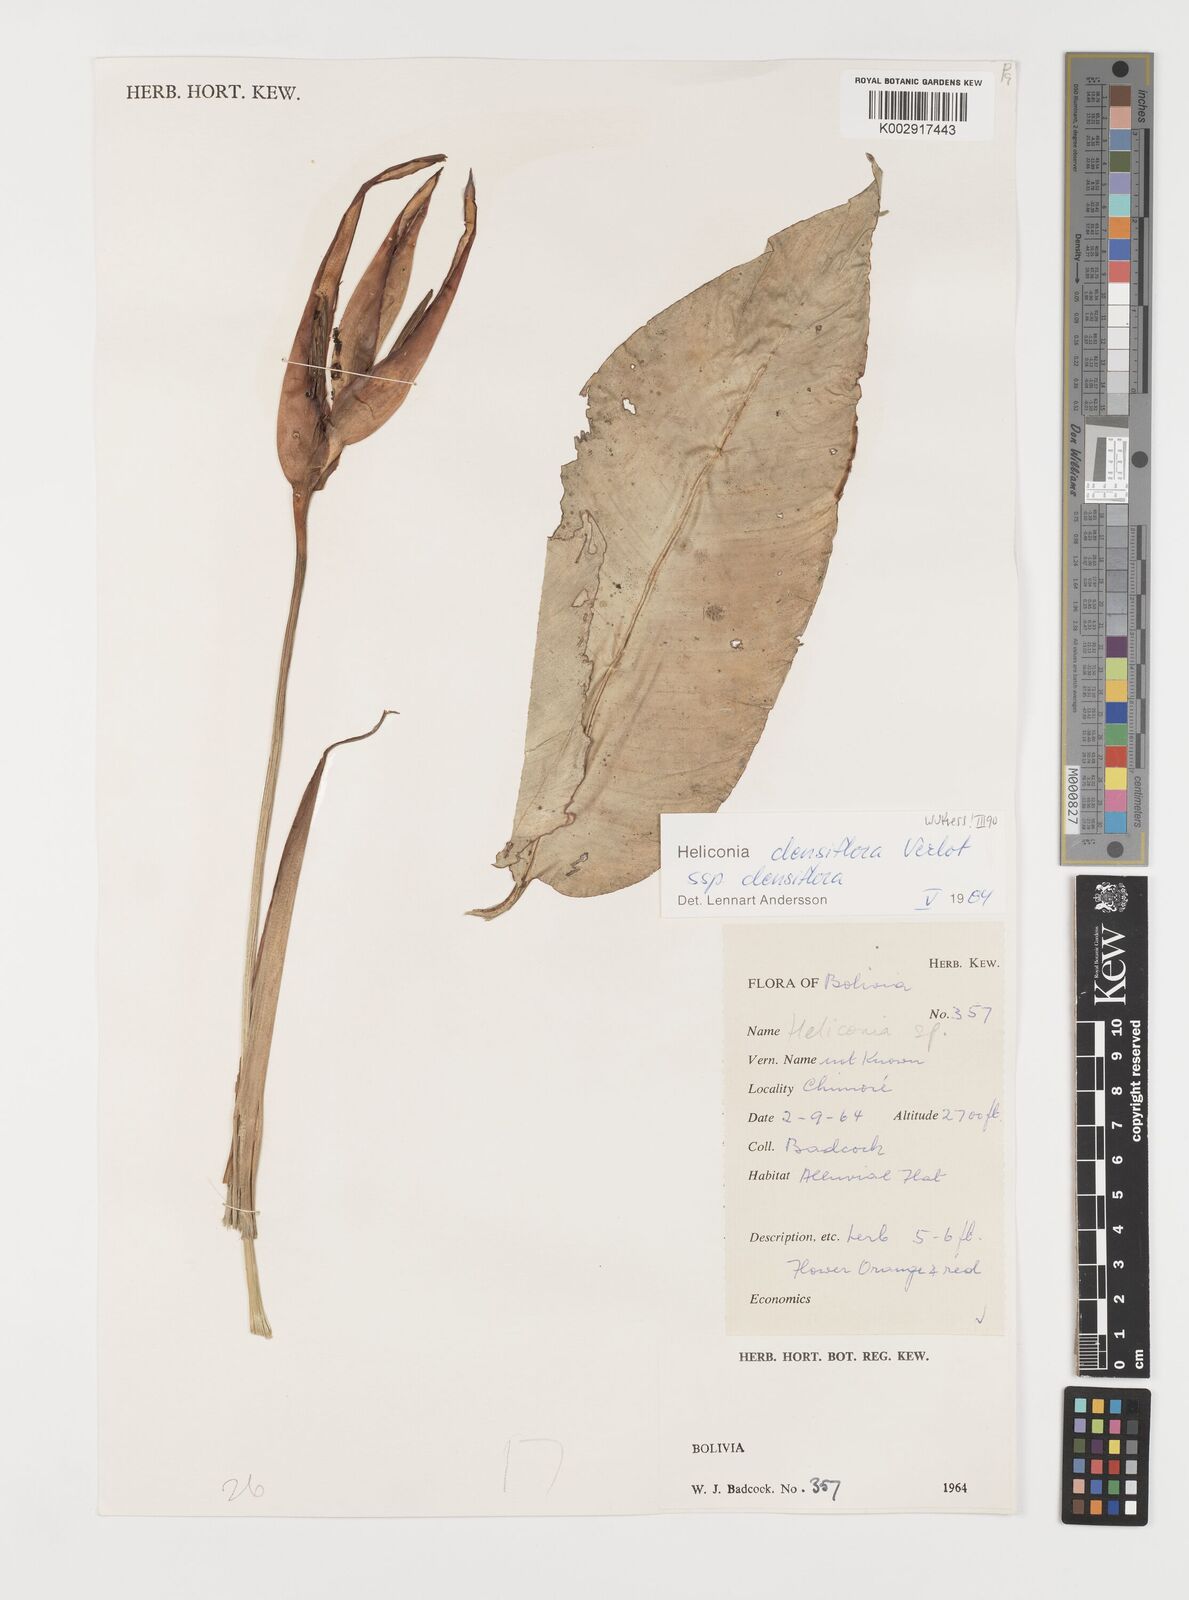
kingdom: Plantae
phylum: Tracheophyta
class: Liliopsida
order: Zingiberales
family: Heliconiaceae
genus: Heliconia
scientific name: Heliconia densiflora
